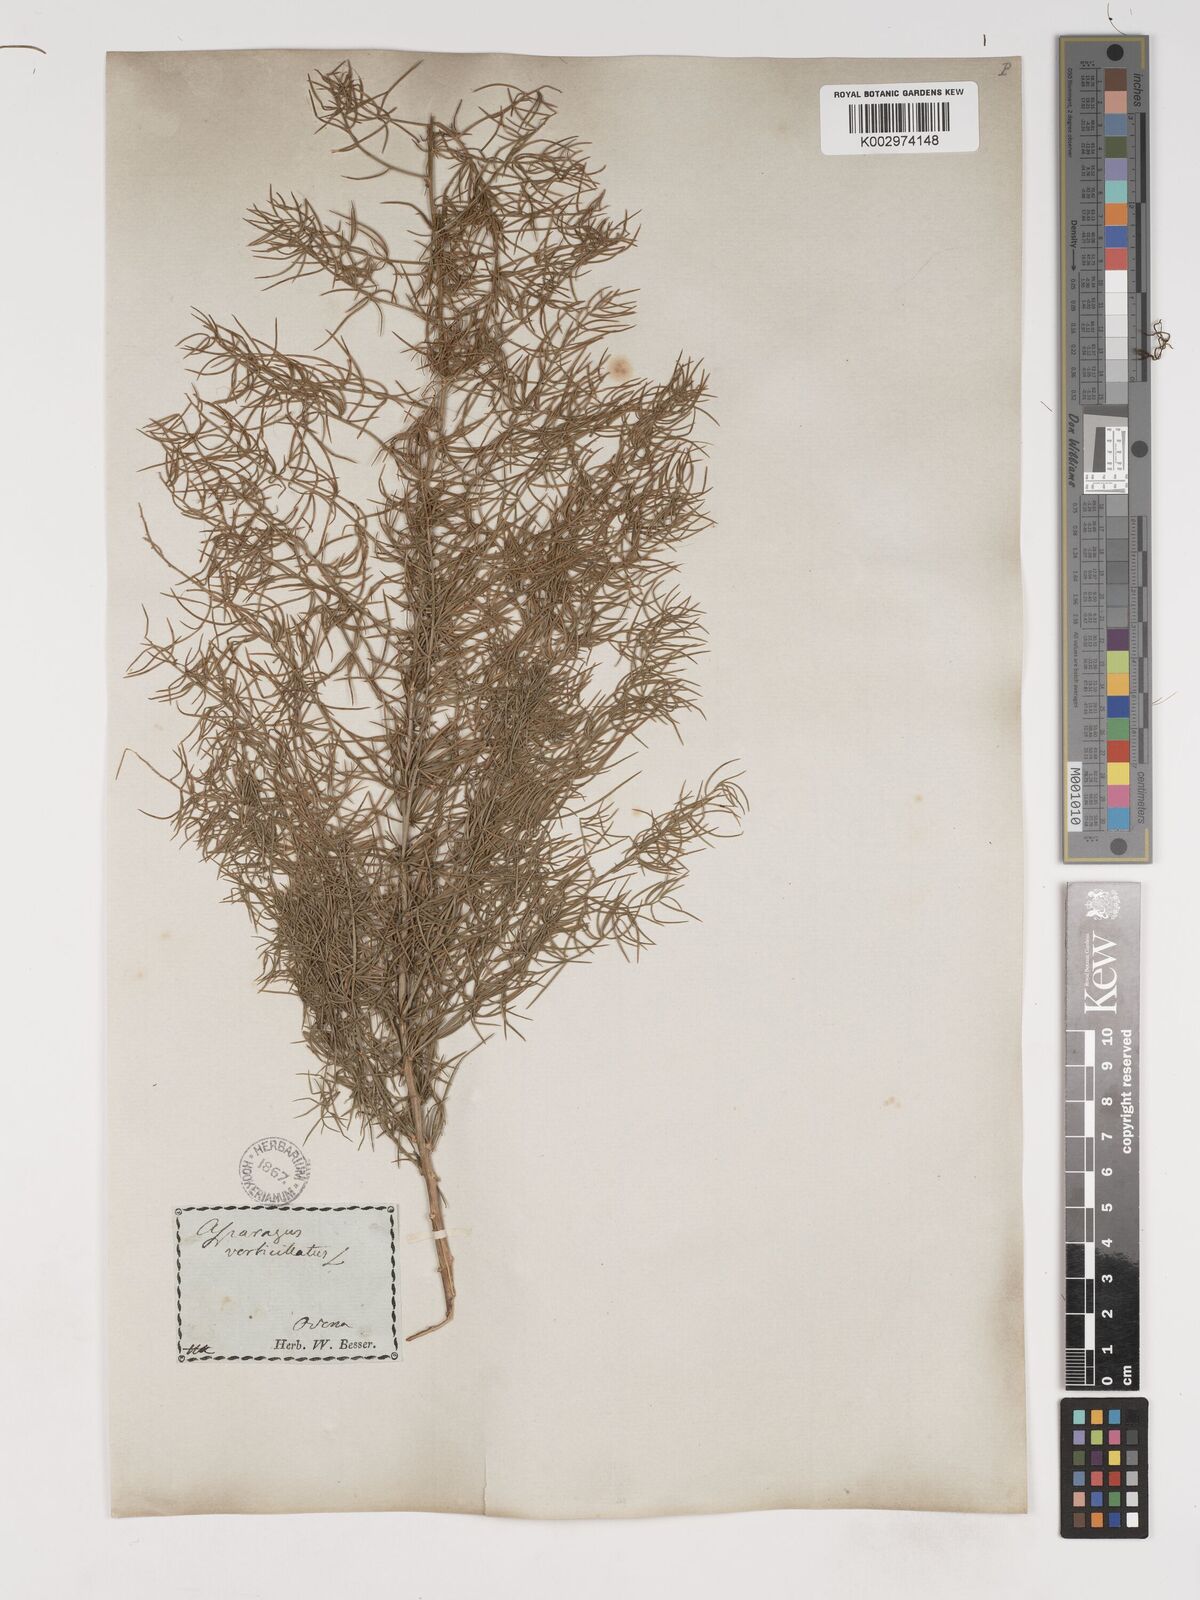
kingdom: Plantae
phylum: Tracheophyta
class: Liliopsida
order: Asparagales
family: Asparagaceae
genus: Asparagus
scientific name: Asparagus verticillatus
